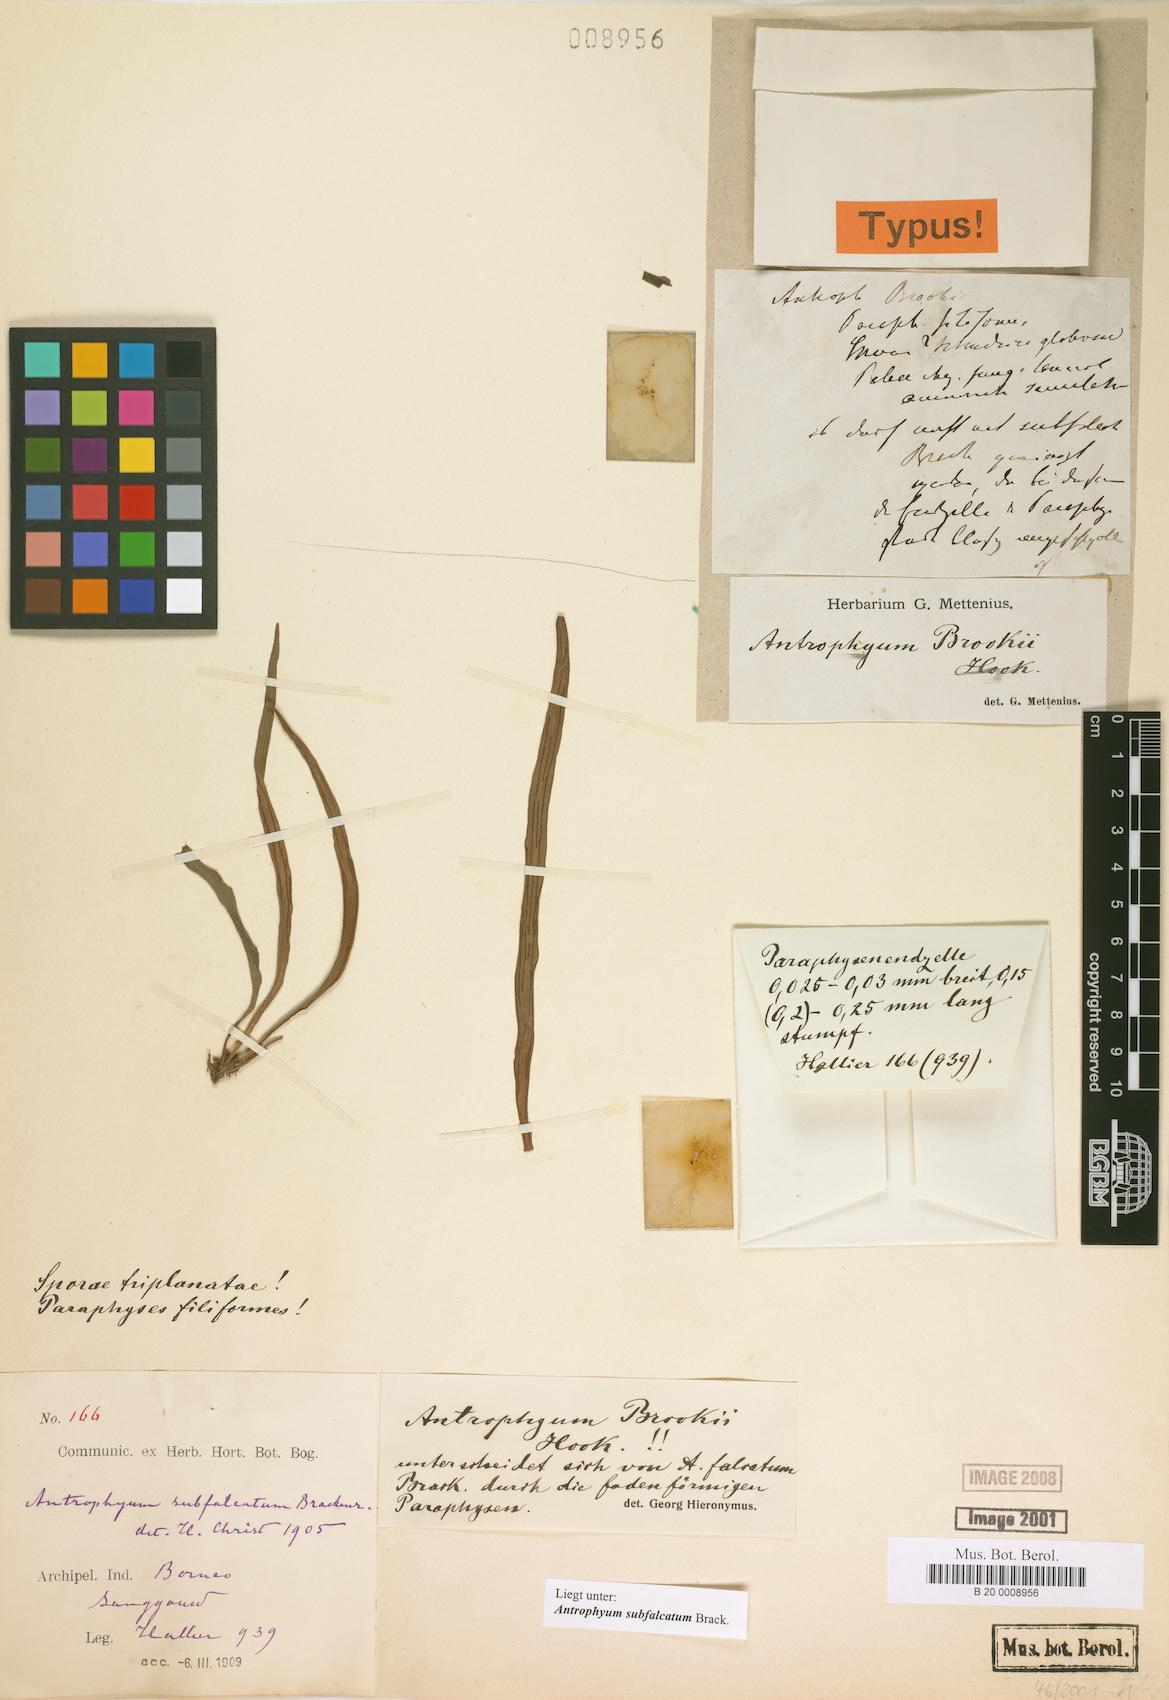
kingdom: Plantae
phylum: Tracheophyta
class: Polypodiopsida
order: Polypodiales
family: Pteridaceae
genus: Antrophyum
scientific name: Antrophyum subfalcatum
